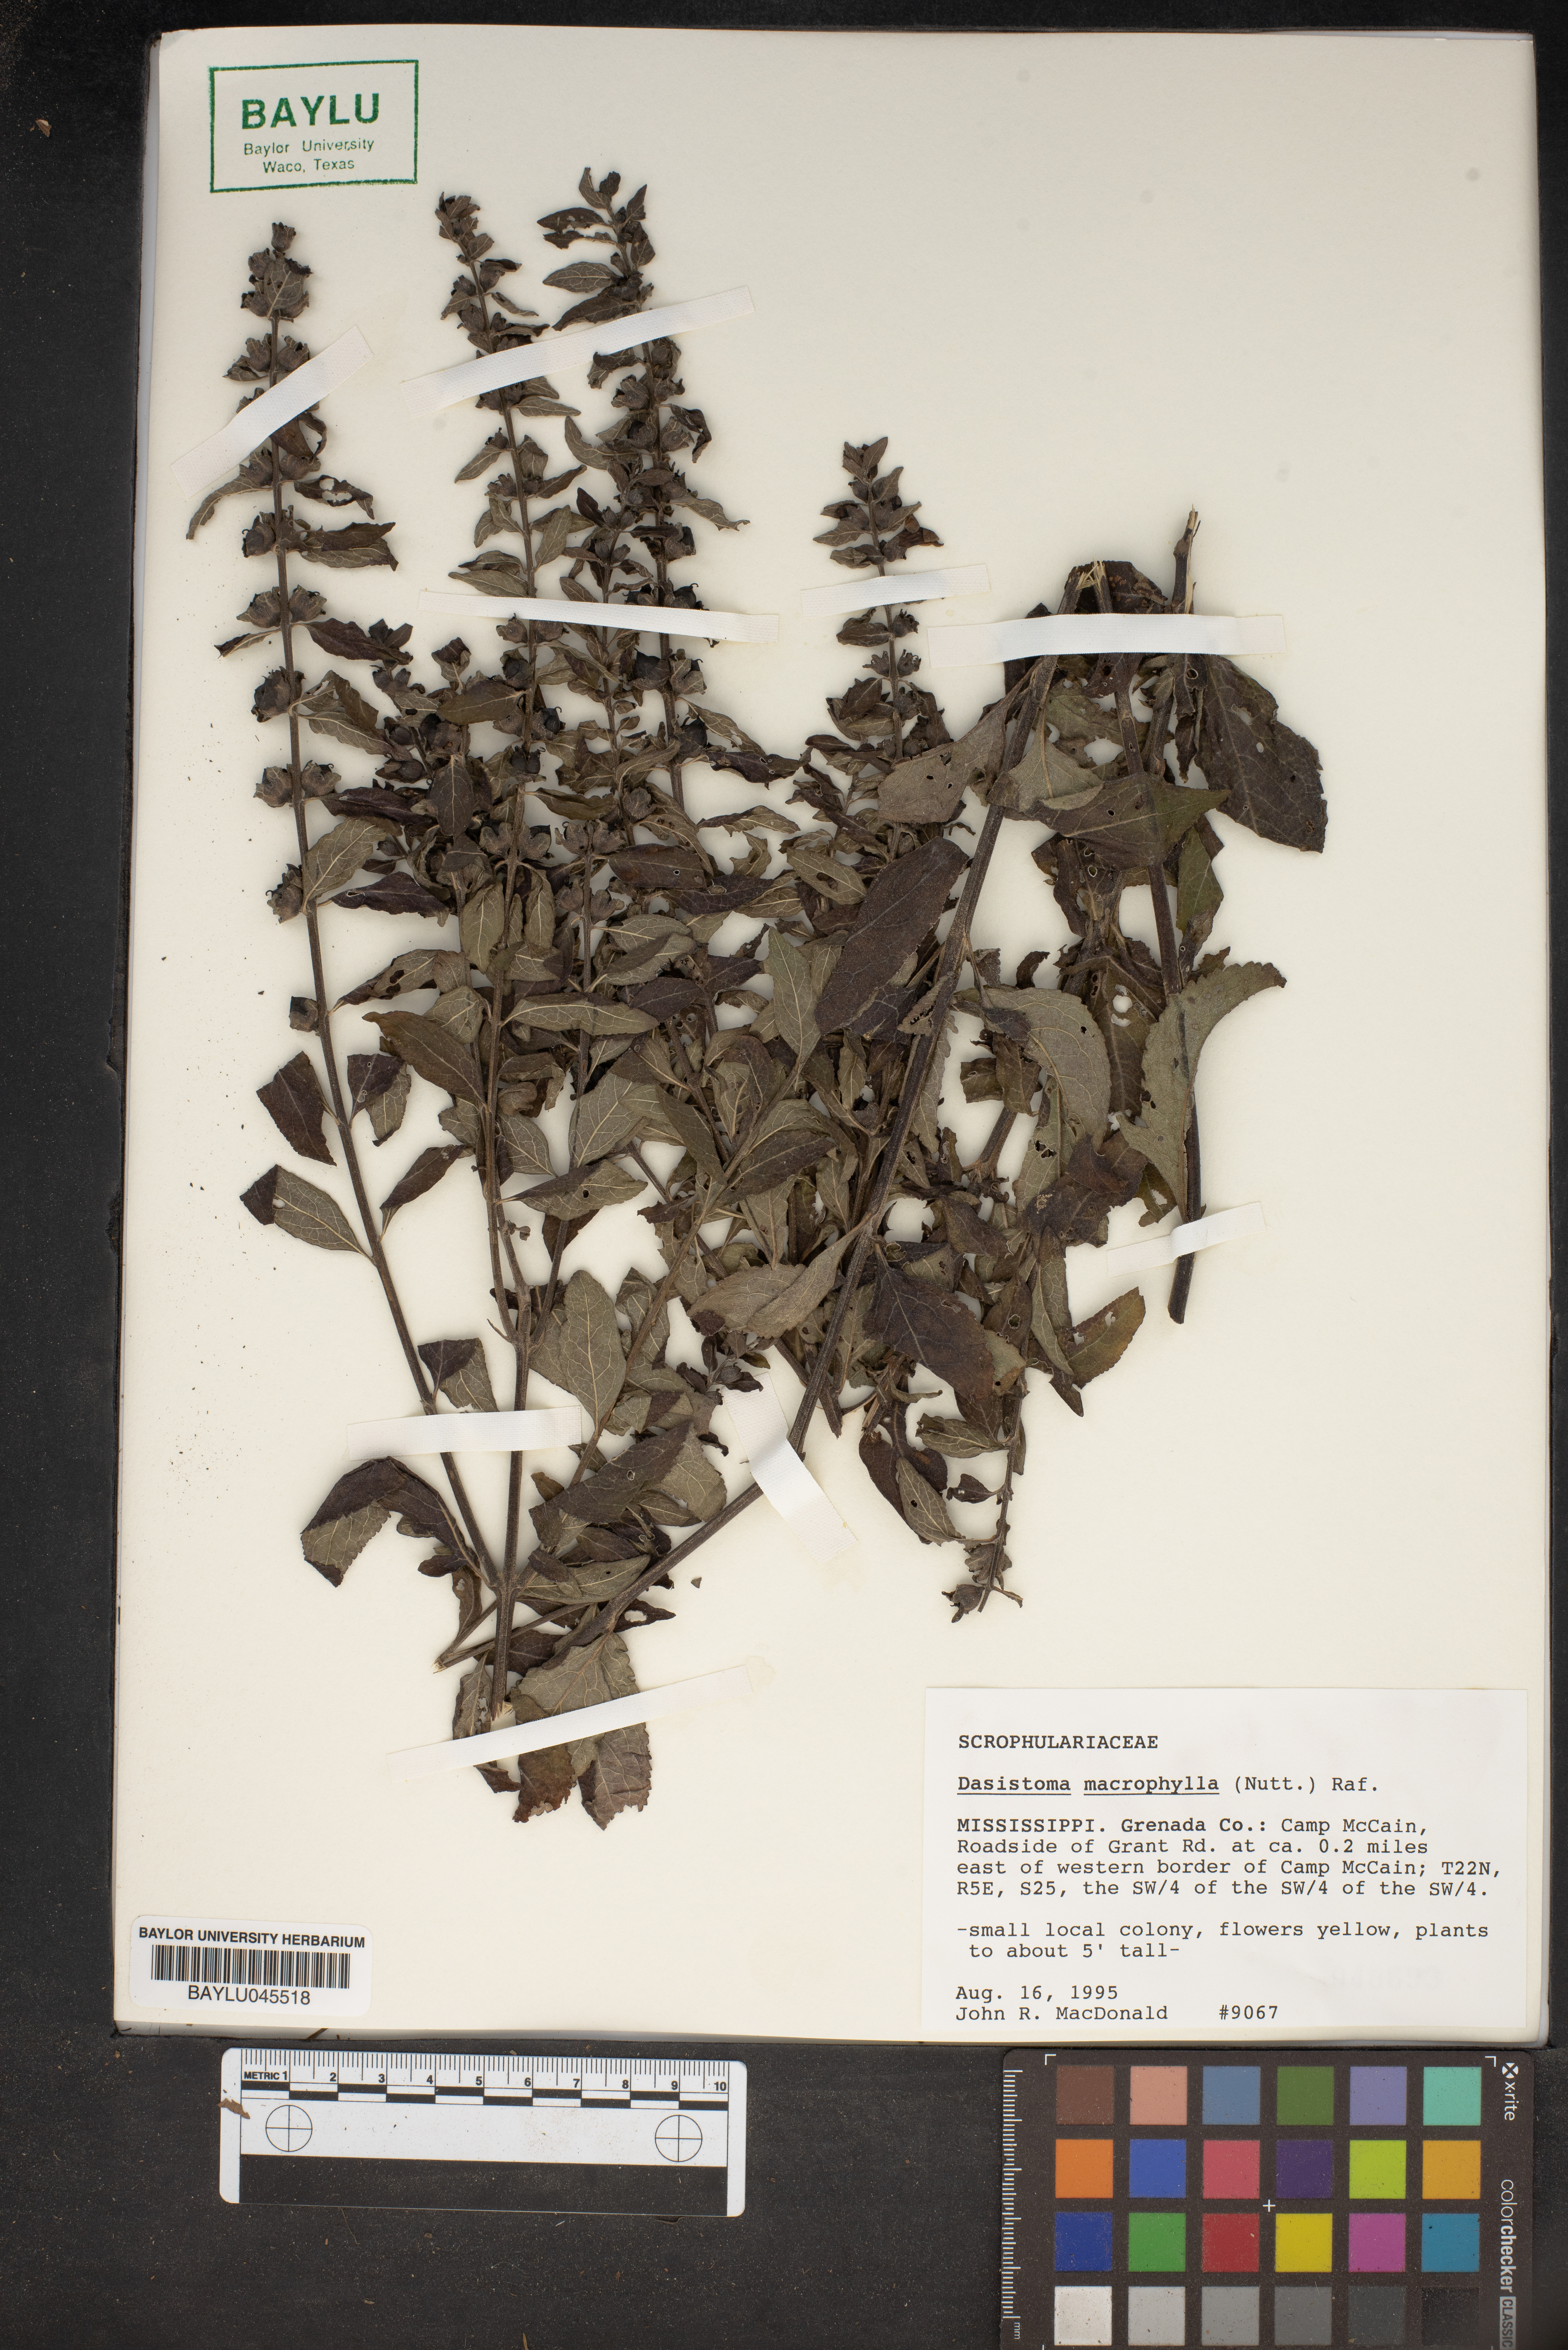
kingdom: Plantae
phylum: Tracheophyta
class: Magnoliopsida
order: Lamiales
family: Orobanchaceae
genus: Dasistoma
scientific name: Dasistoma macrophyllum
